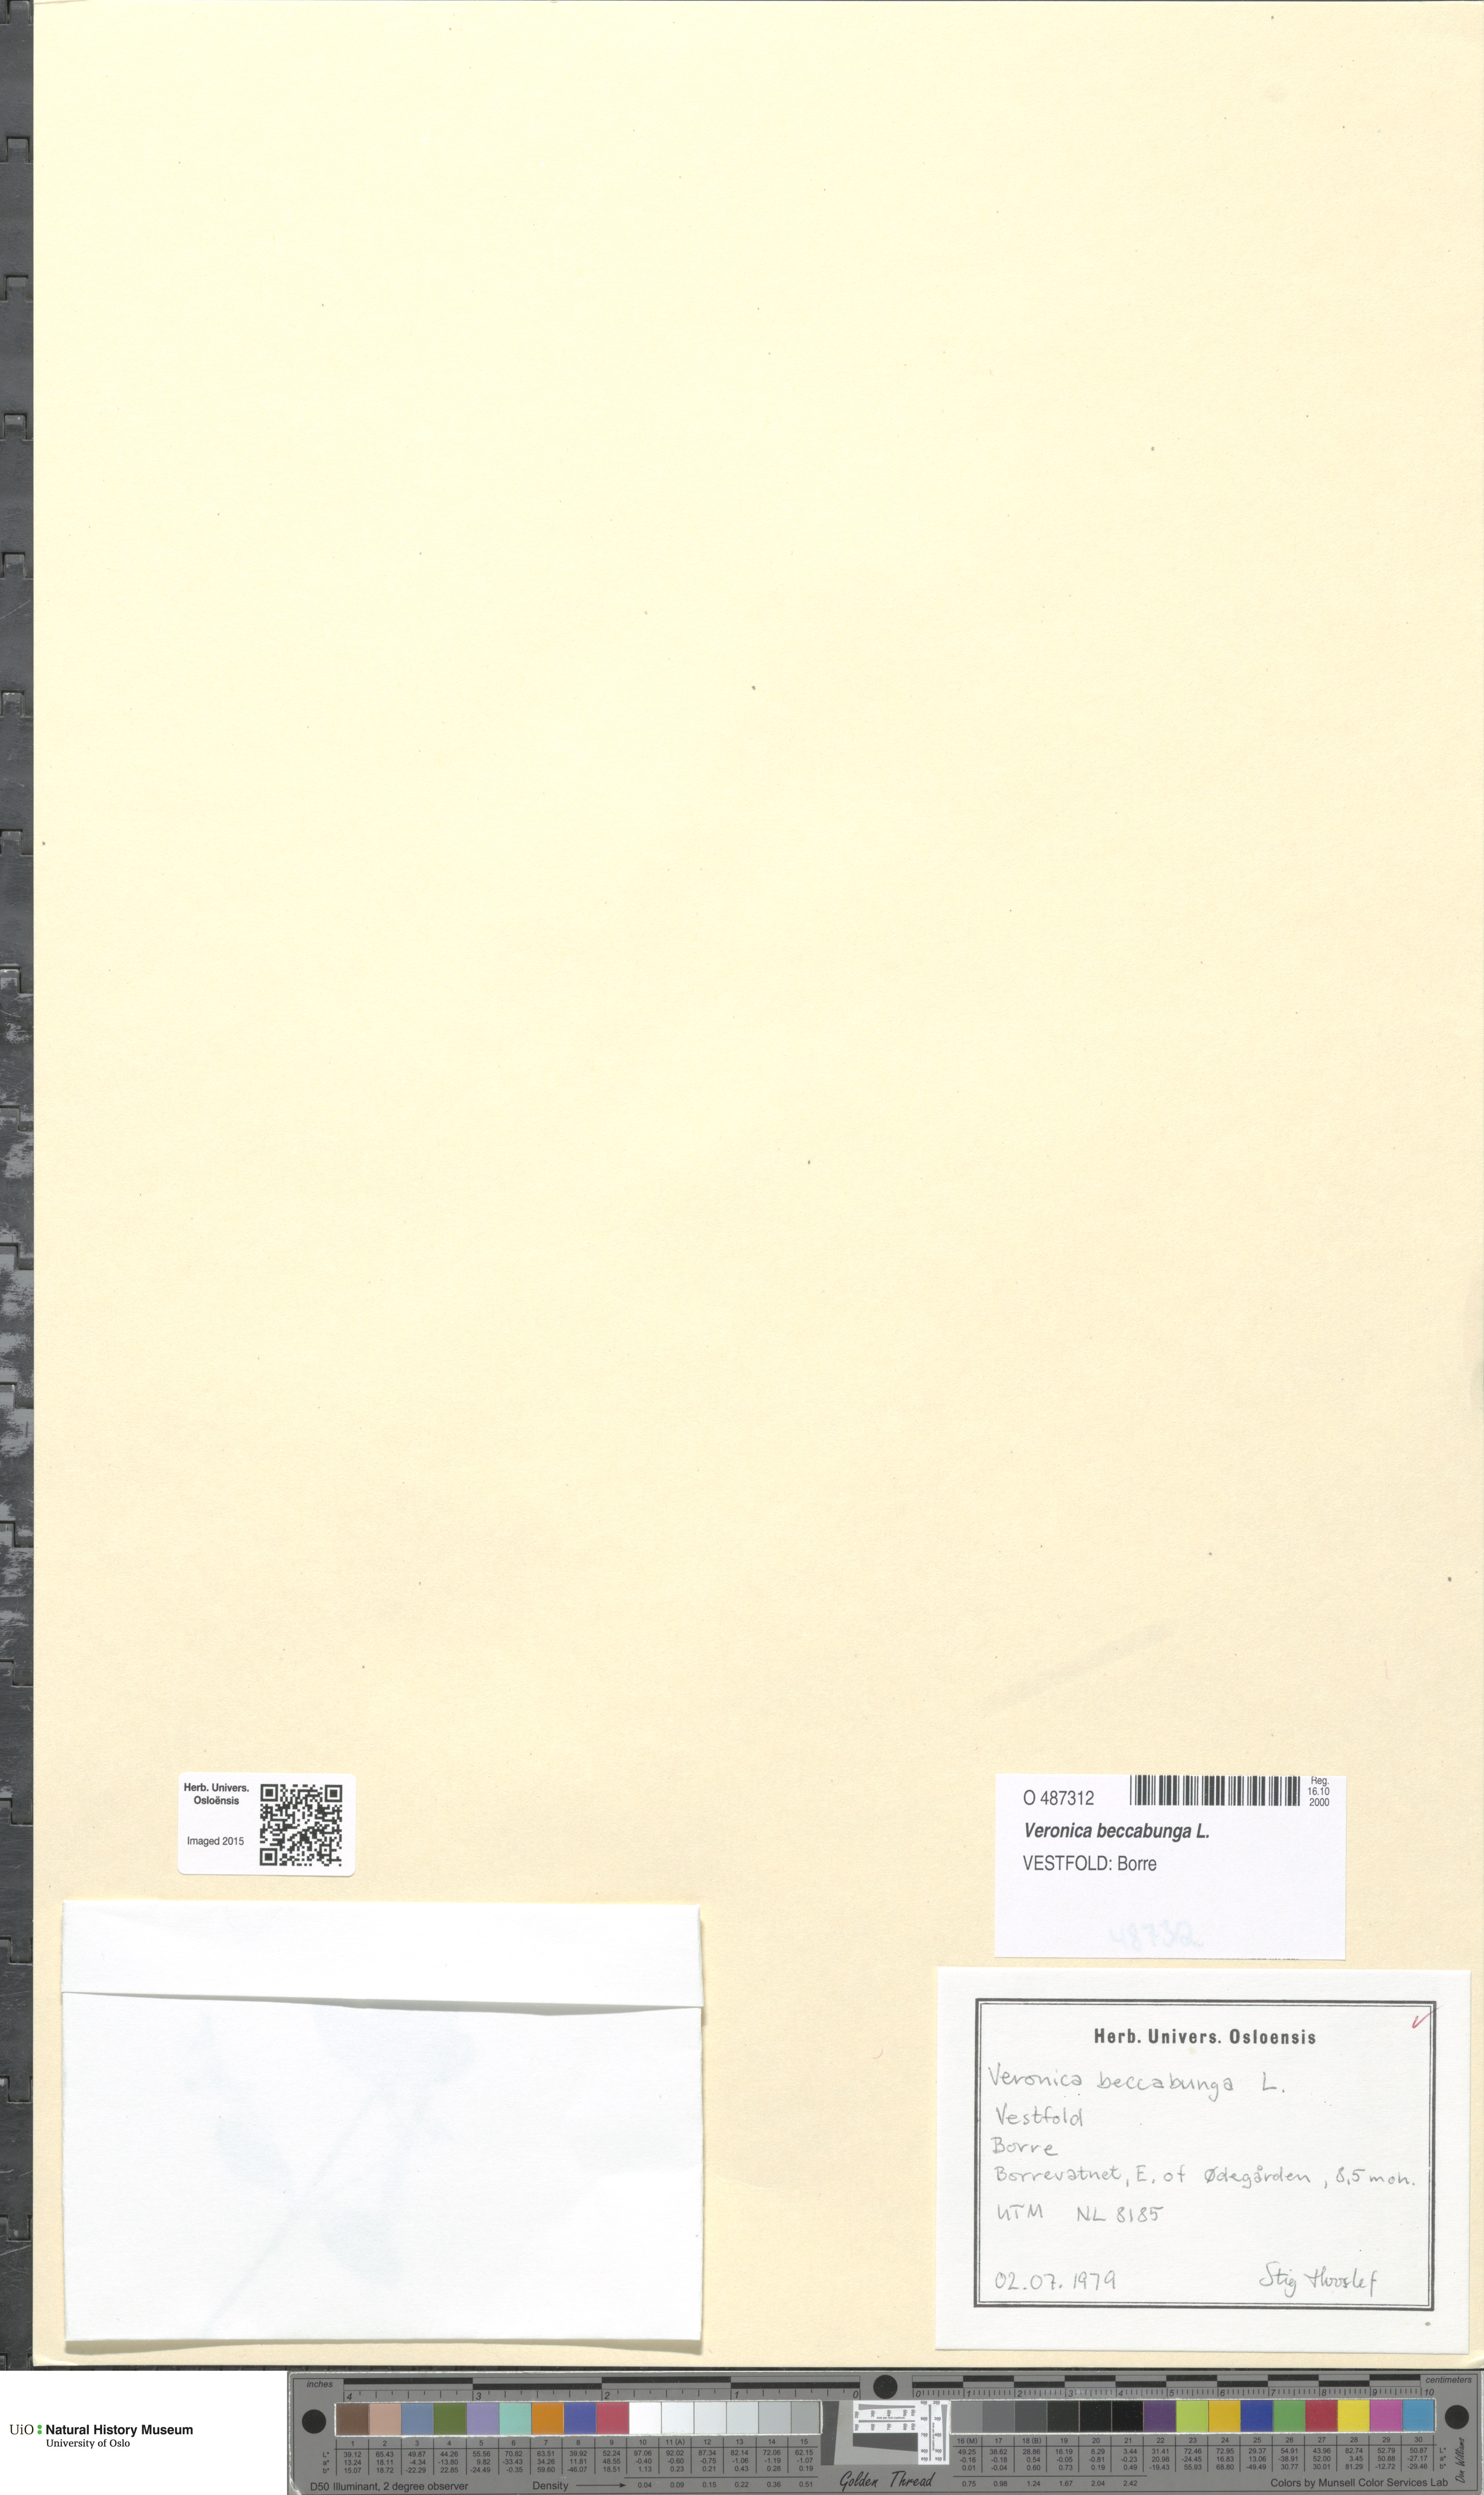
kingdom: Plantae
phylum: Tracheophyta
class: Magnoliopsida
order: Lamiales
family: Plantaginaceae
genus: Veronica
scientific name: Veronica beccabunga
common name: Brooklime
